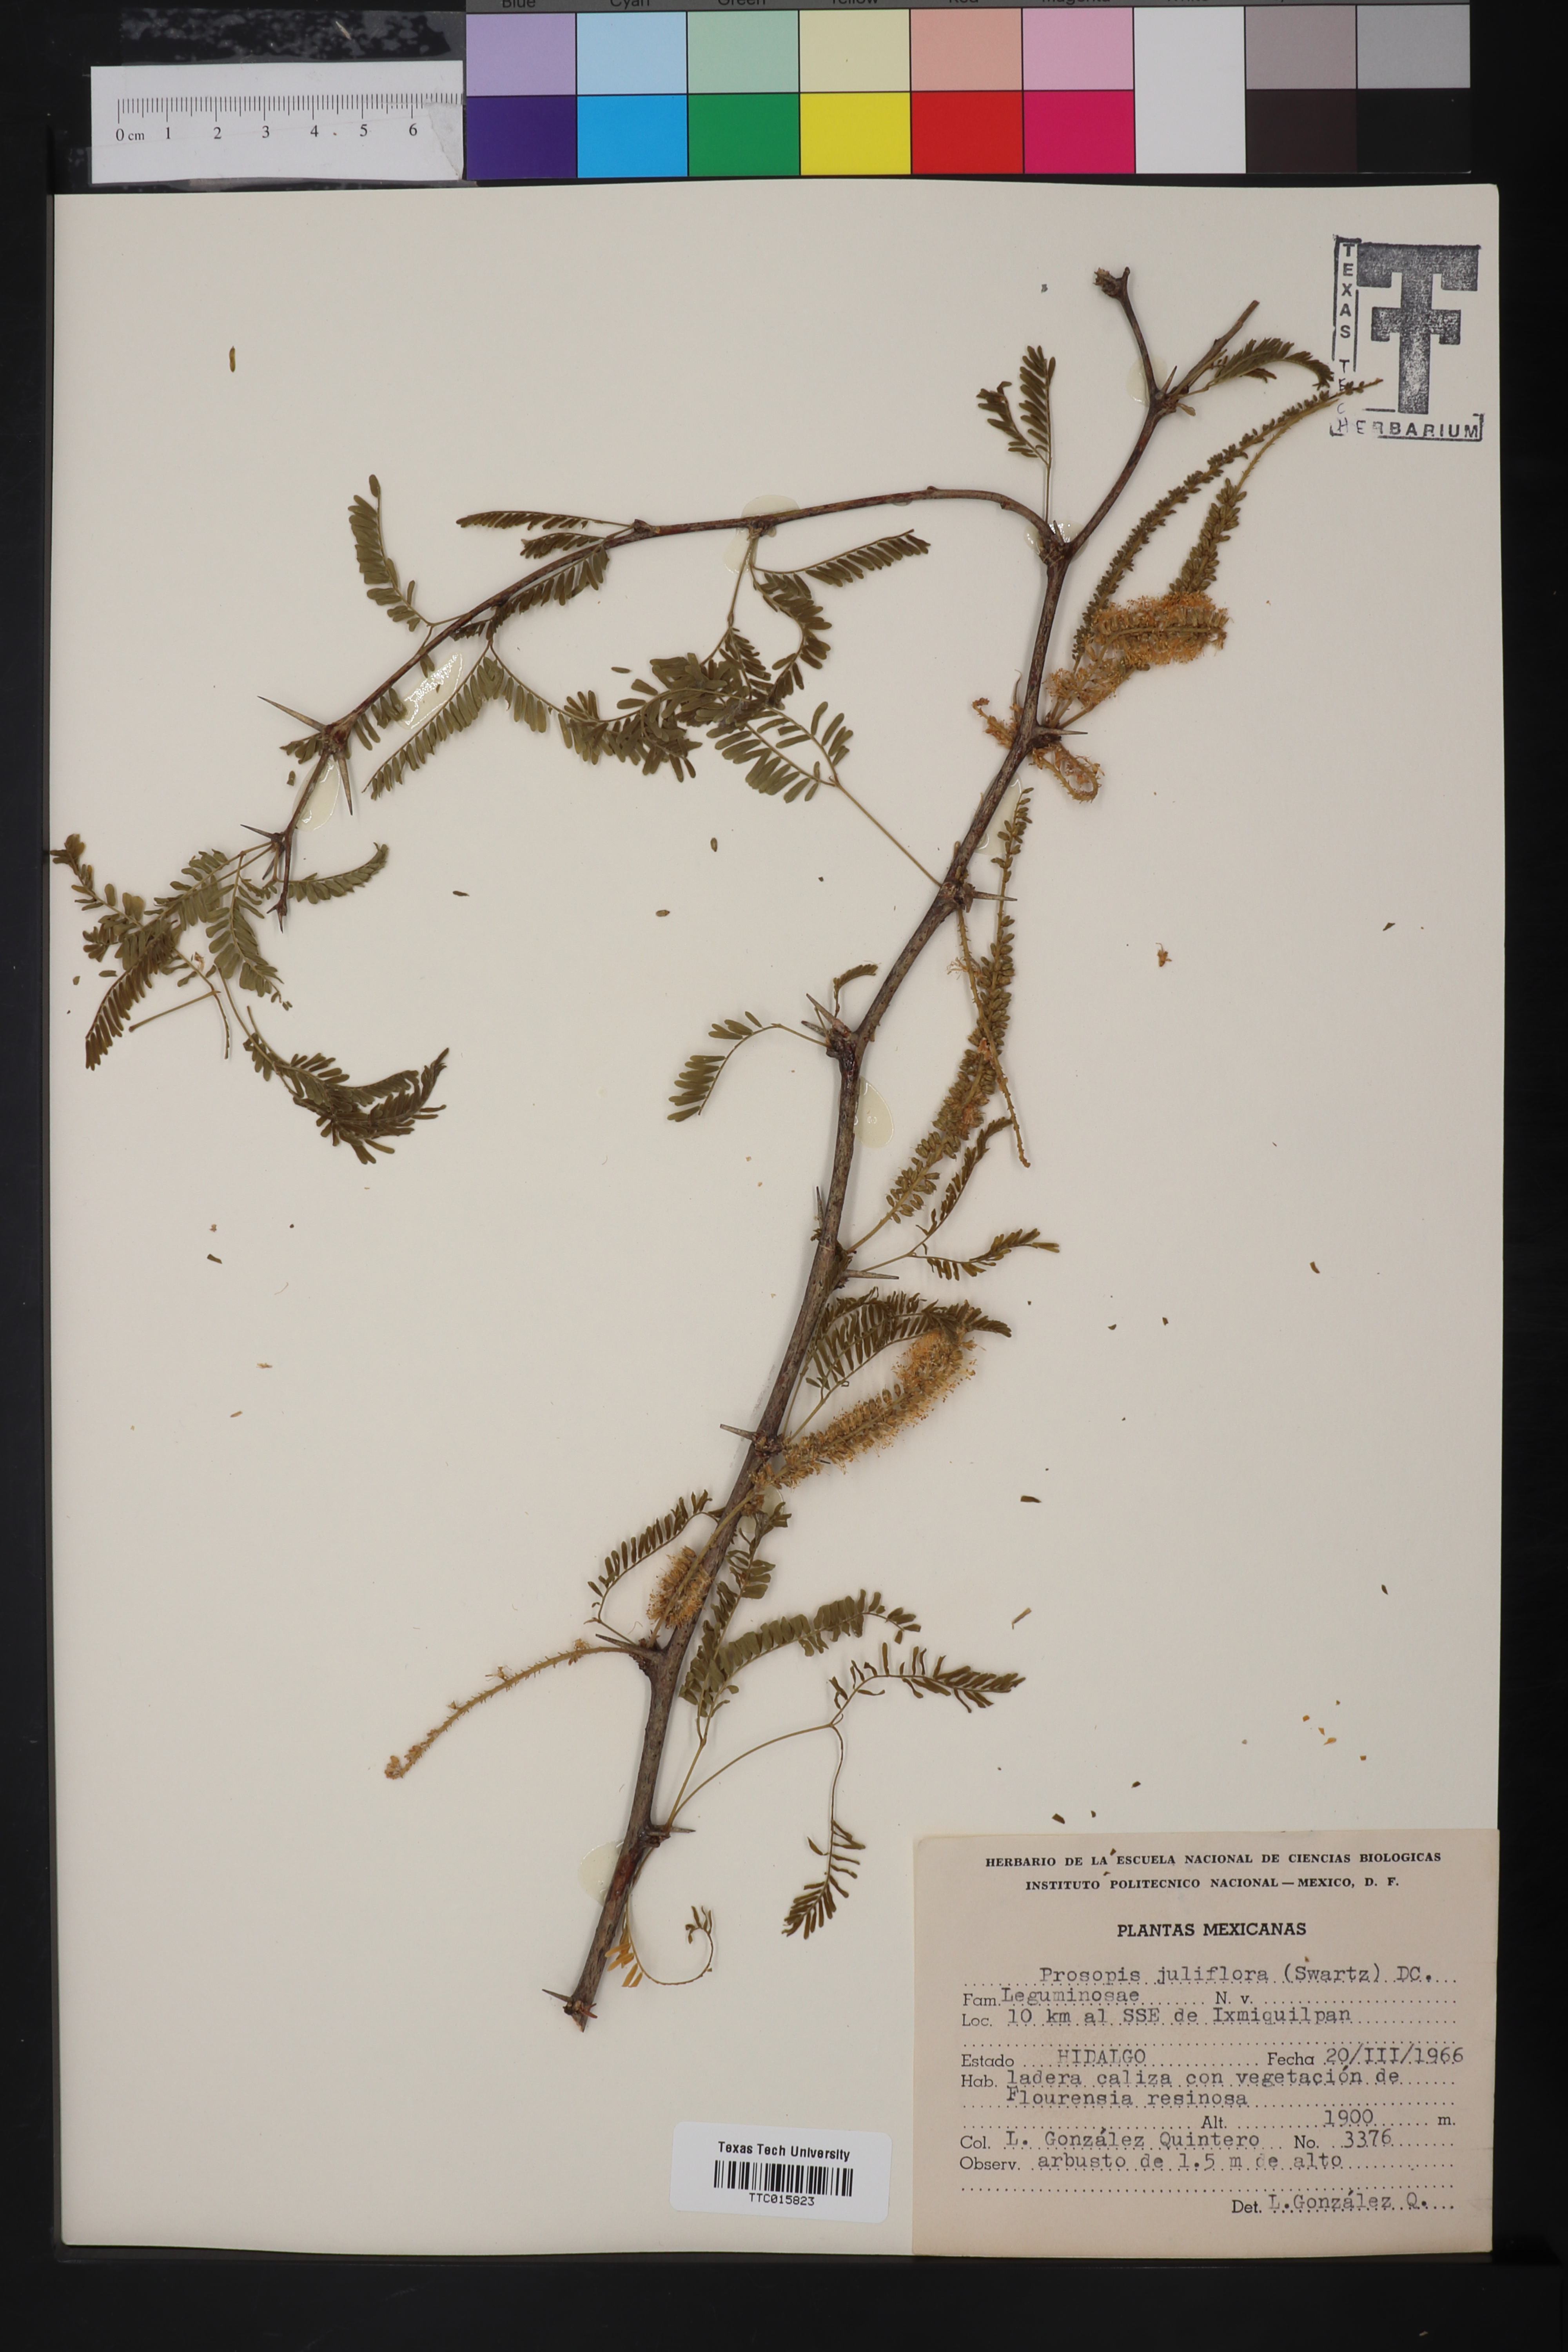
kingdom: Plantae
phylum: Tracheophyta
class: Magnoliopsida
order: Fabales
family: Fabaceae
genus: Prosopis
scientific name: Prosopis juliflora
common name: Mesquite
